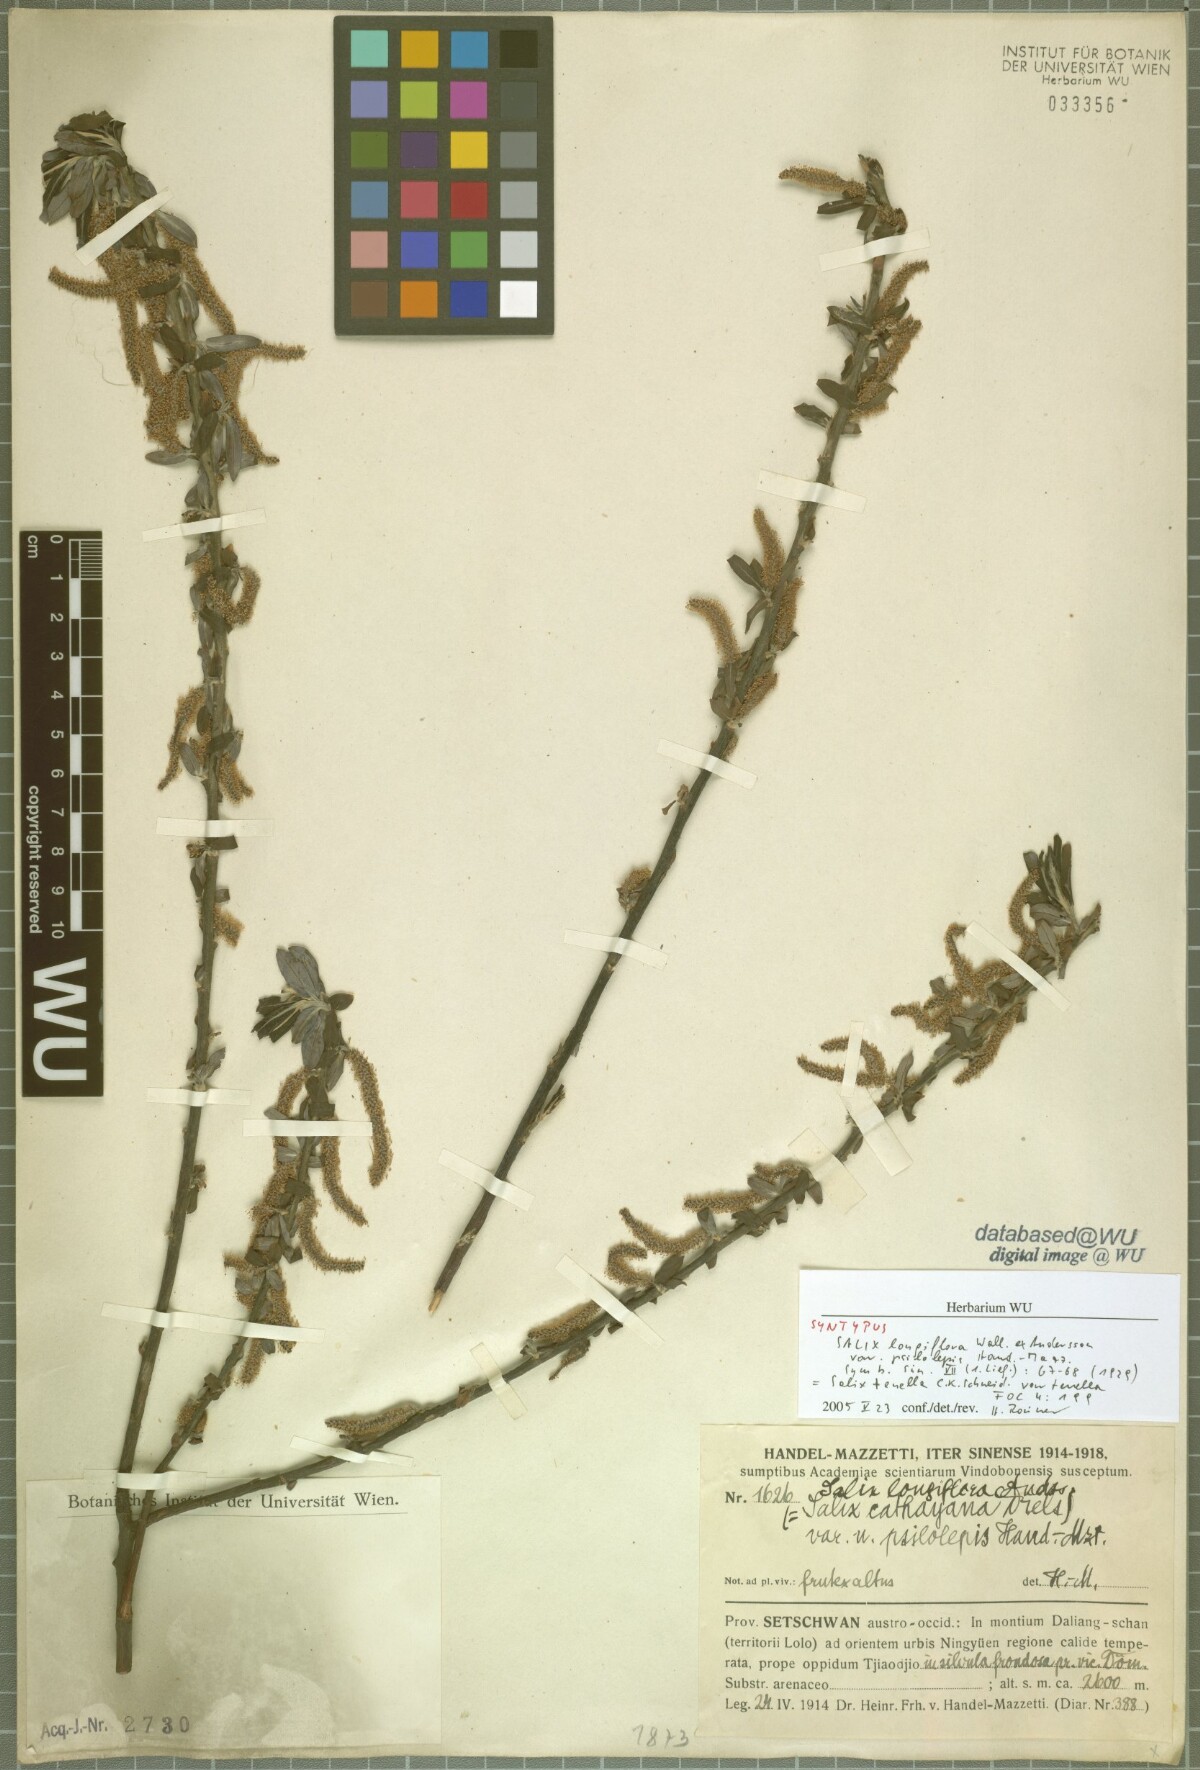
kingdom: Plantae
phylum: Tracheophyta
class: Magnoliopsida
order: Malpighiales
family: Salicaceae
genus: Salix
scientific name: Salix longiflora
